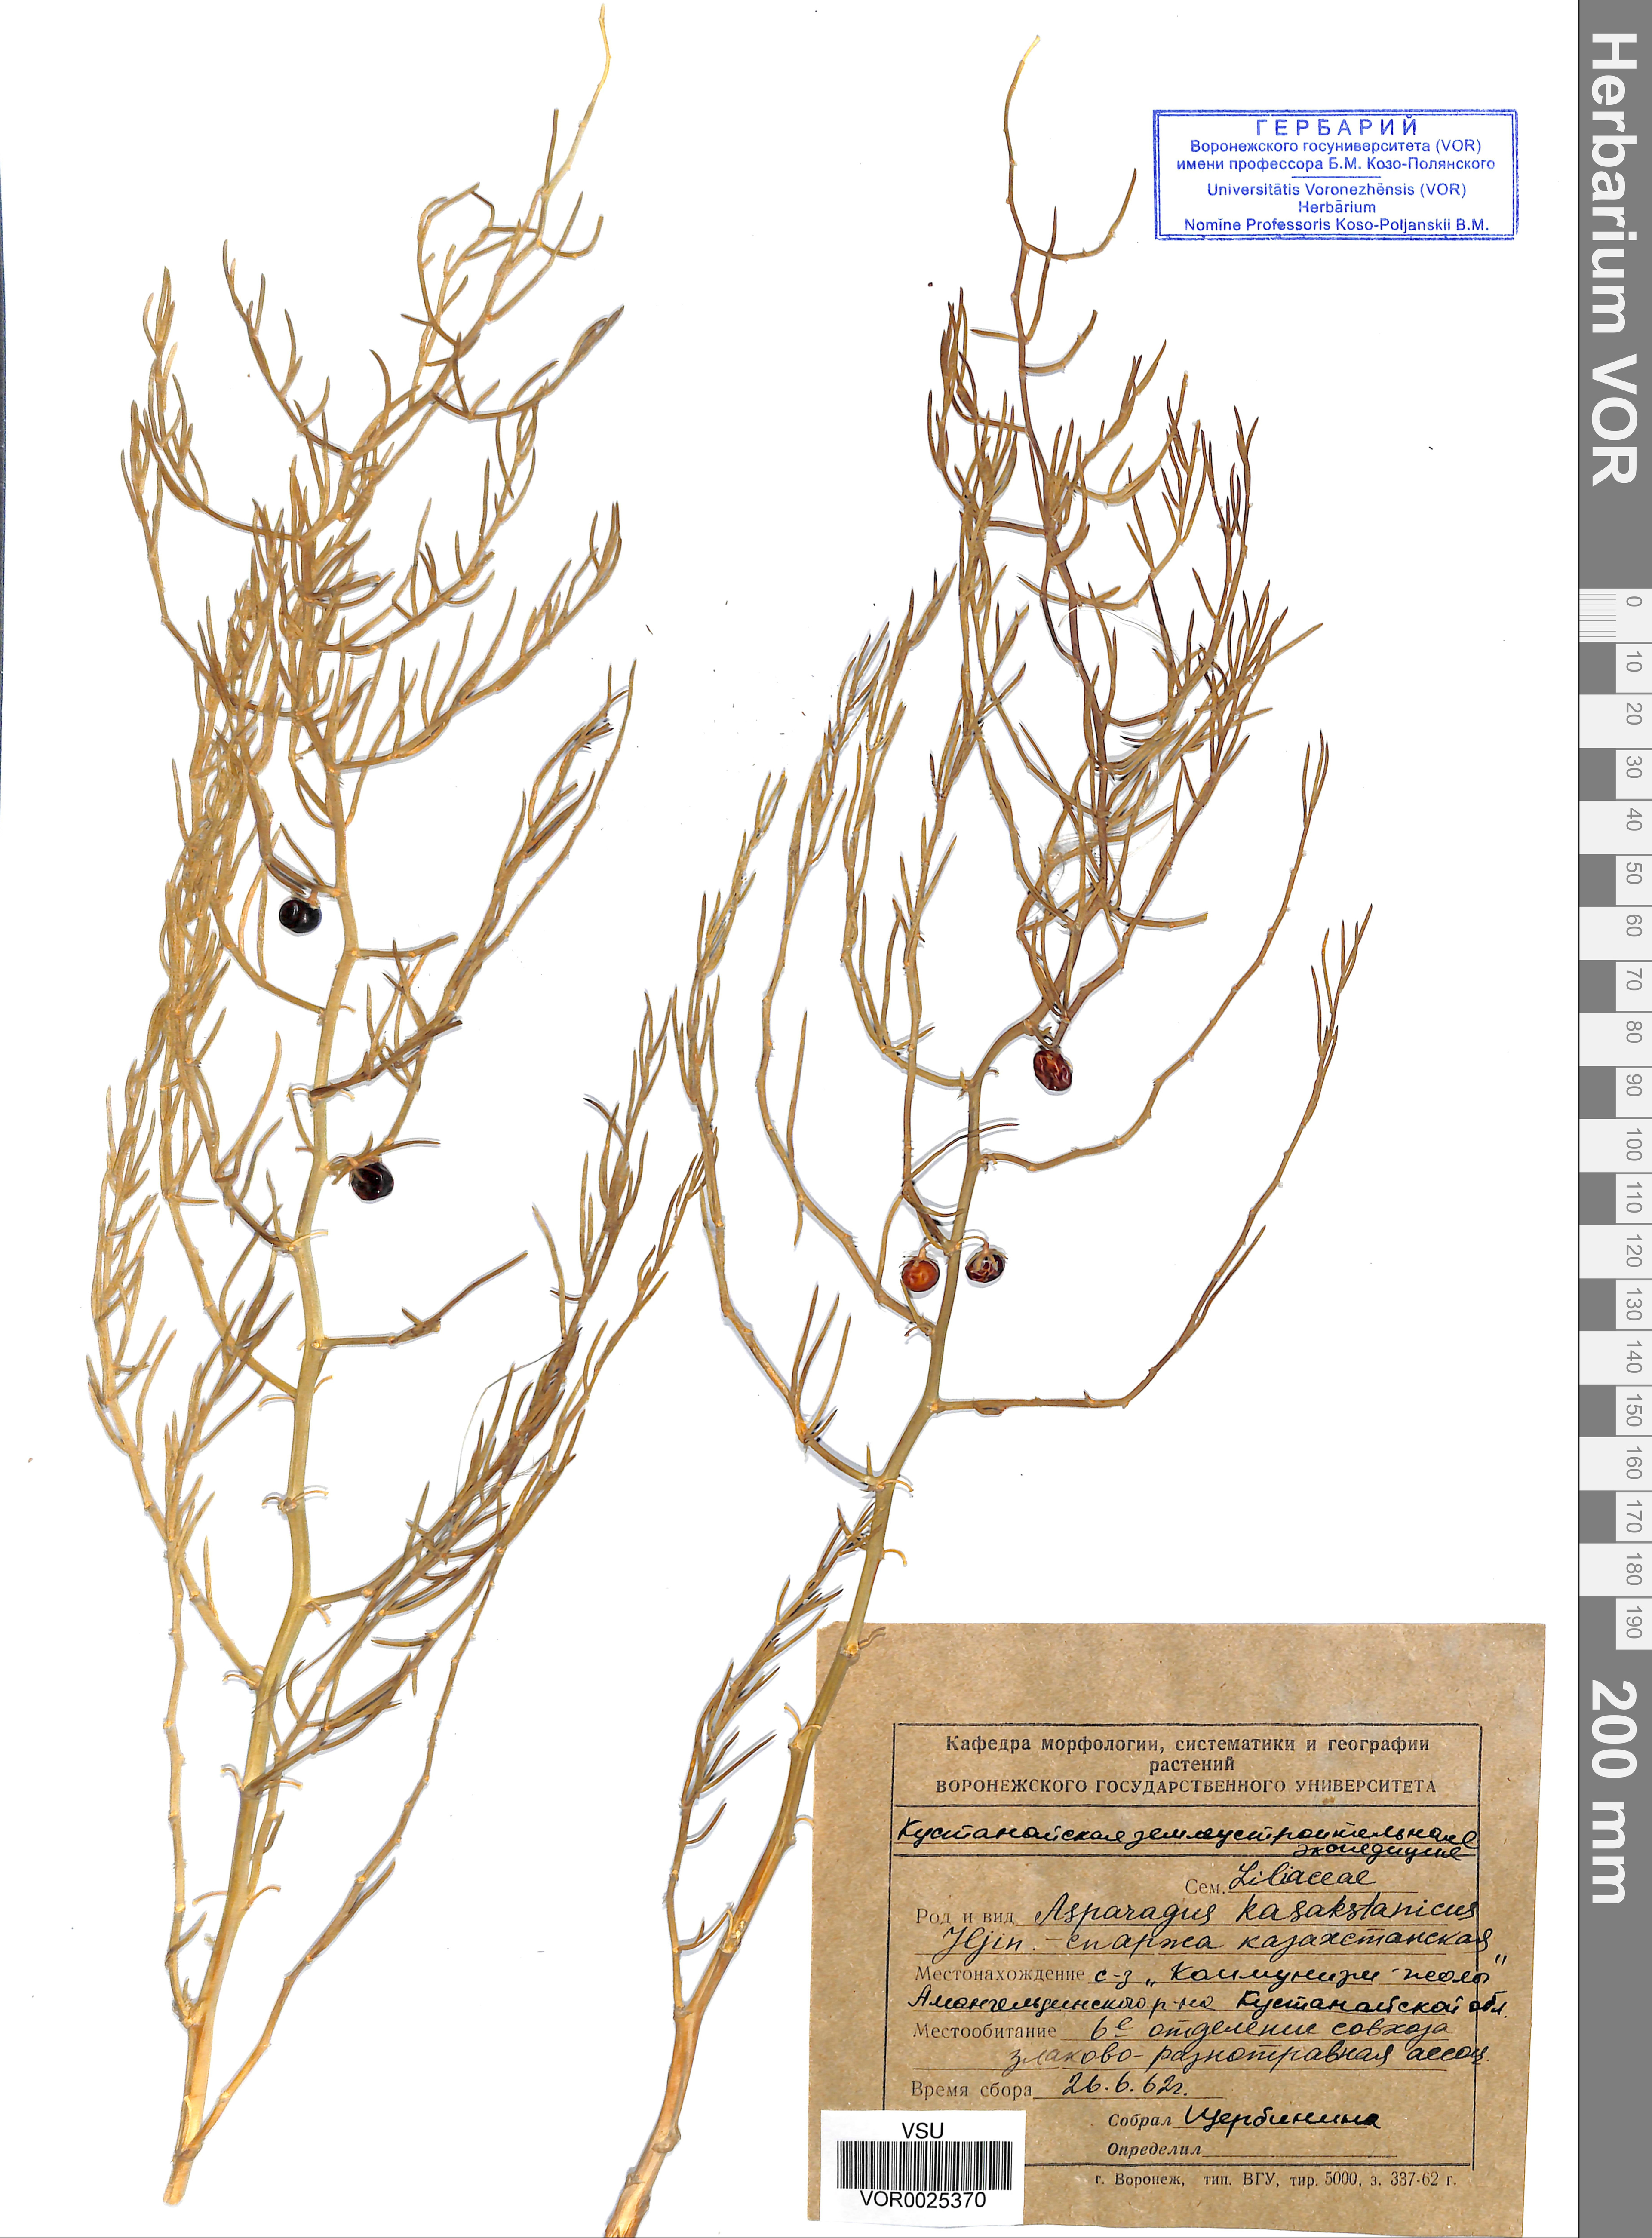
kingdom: Plantae
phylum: Tracheophyta
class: Liliopsida
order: Asparagales
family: Asparagaceae
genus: Asparagus
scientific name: Asparagus officinalis
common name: Garden asparagus
